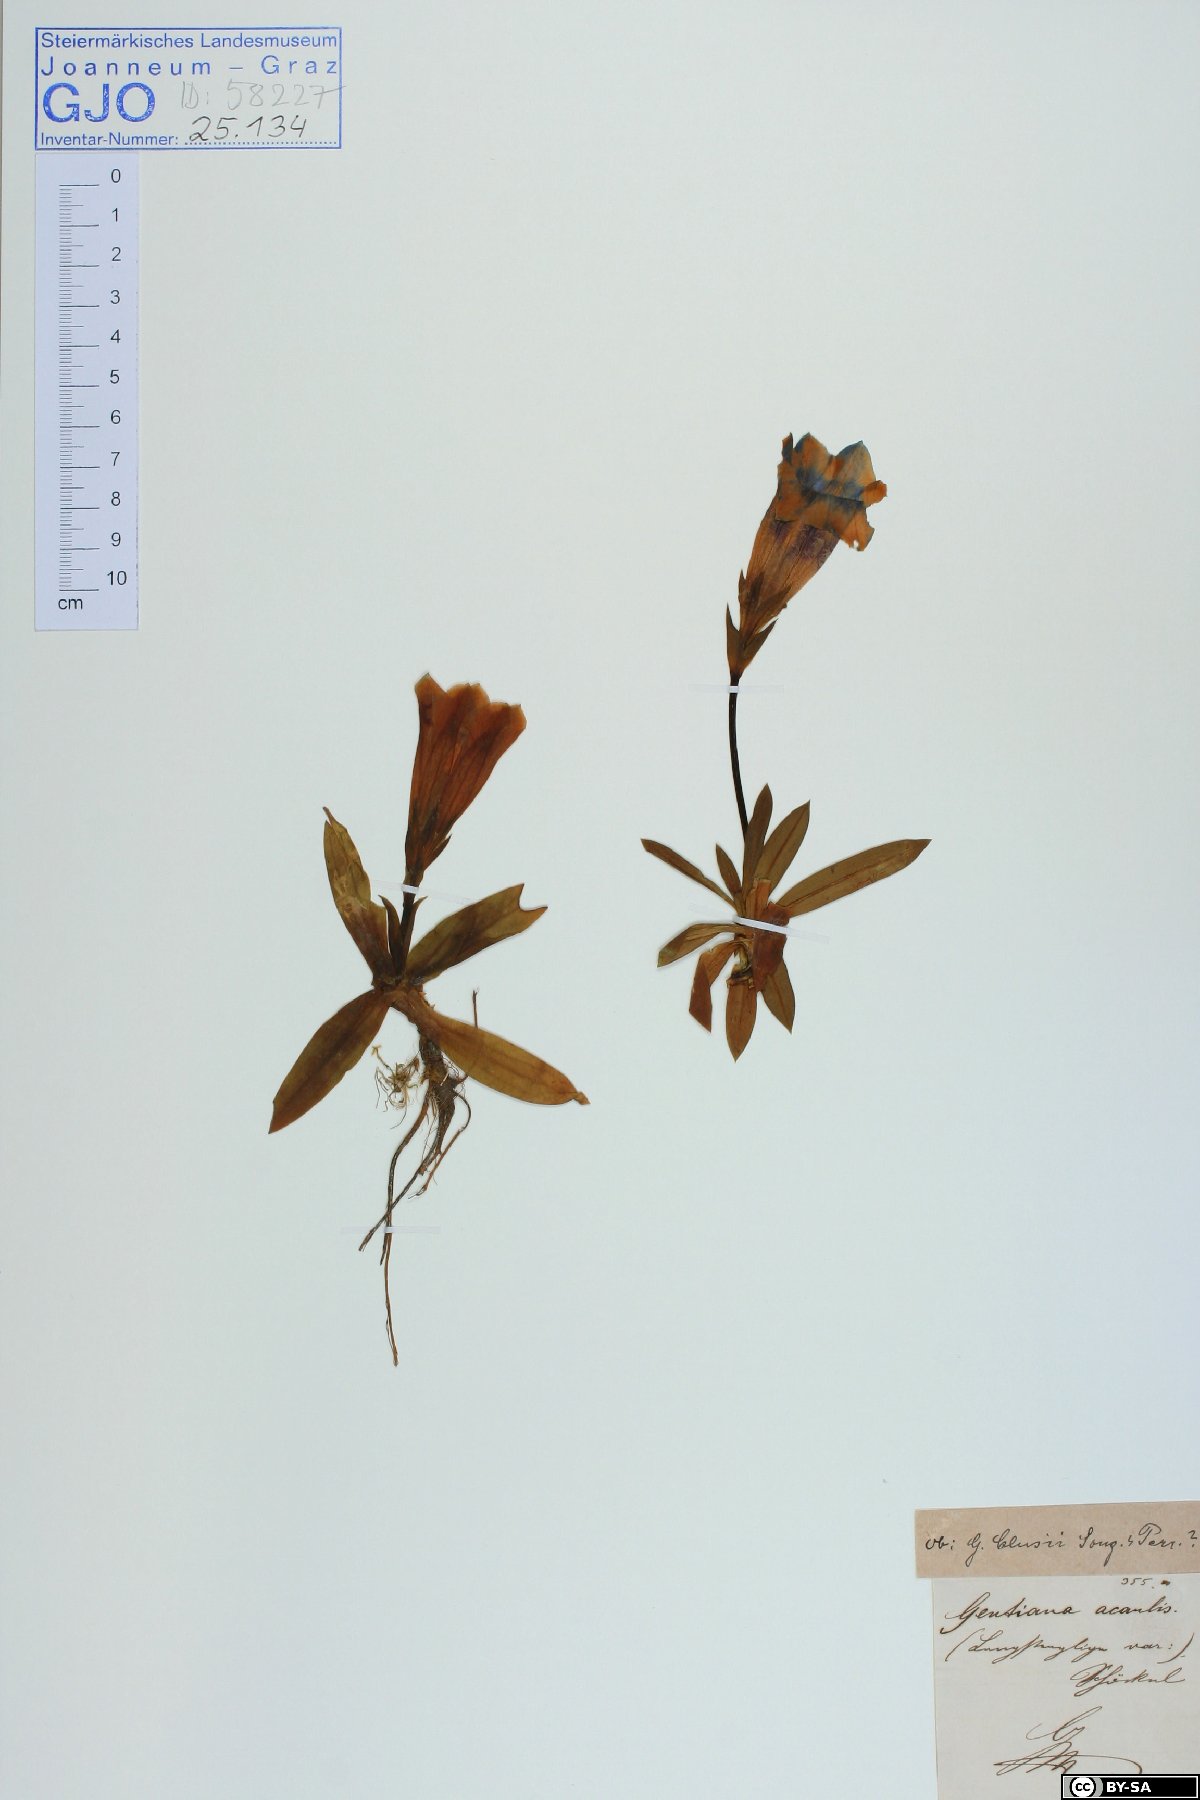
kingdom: Plantae
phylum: Tracheophyta
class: Magnoliopsida
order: Gentianales
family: Gentianaceae
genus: Gentiana
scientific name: Gentiana clusii
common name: Trumpet gentian
